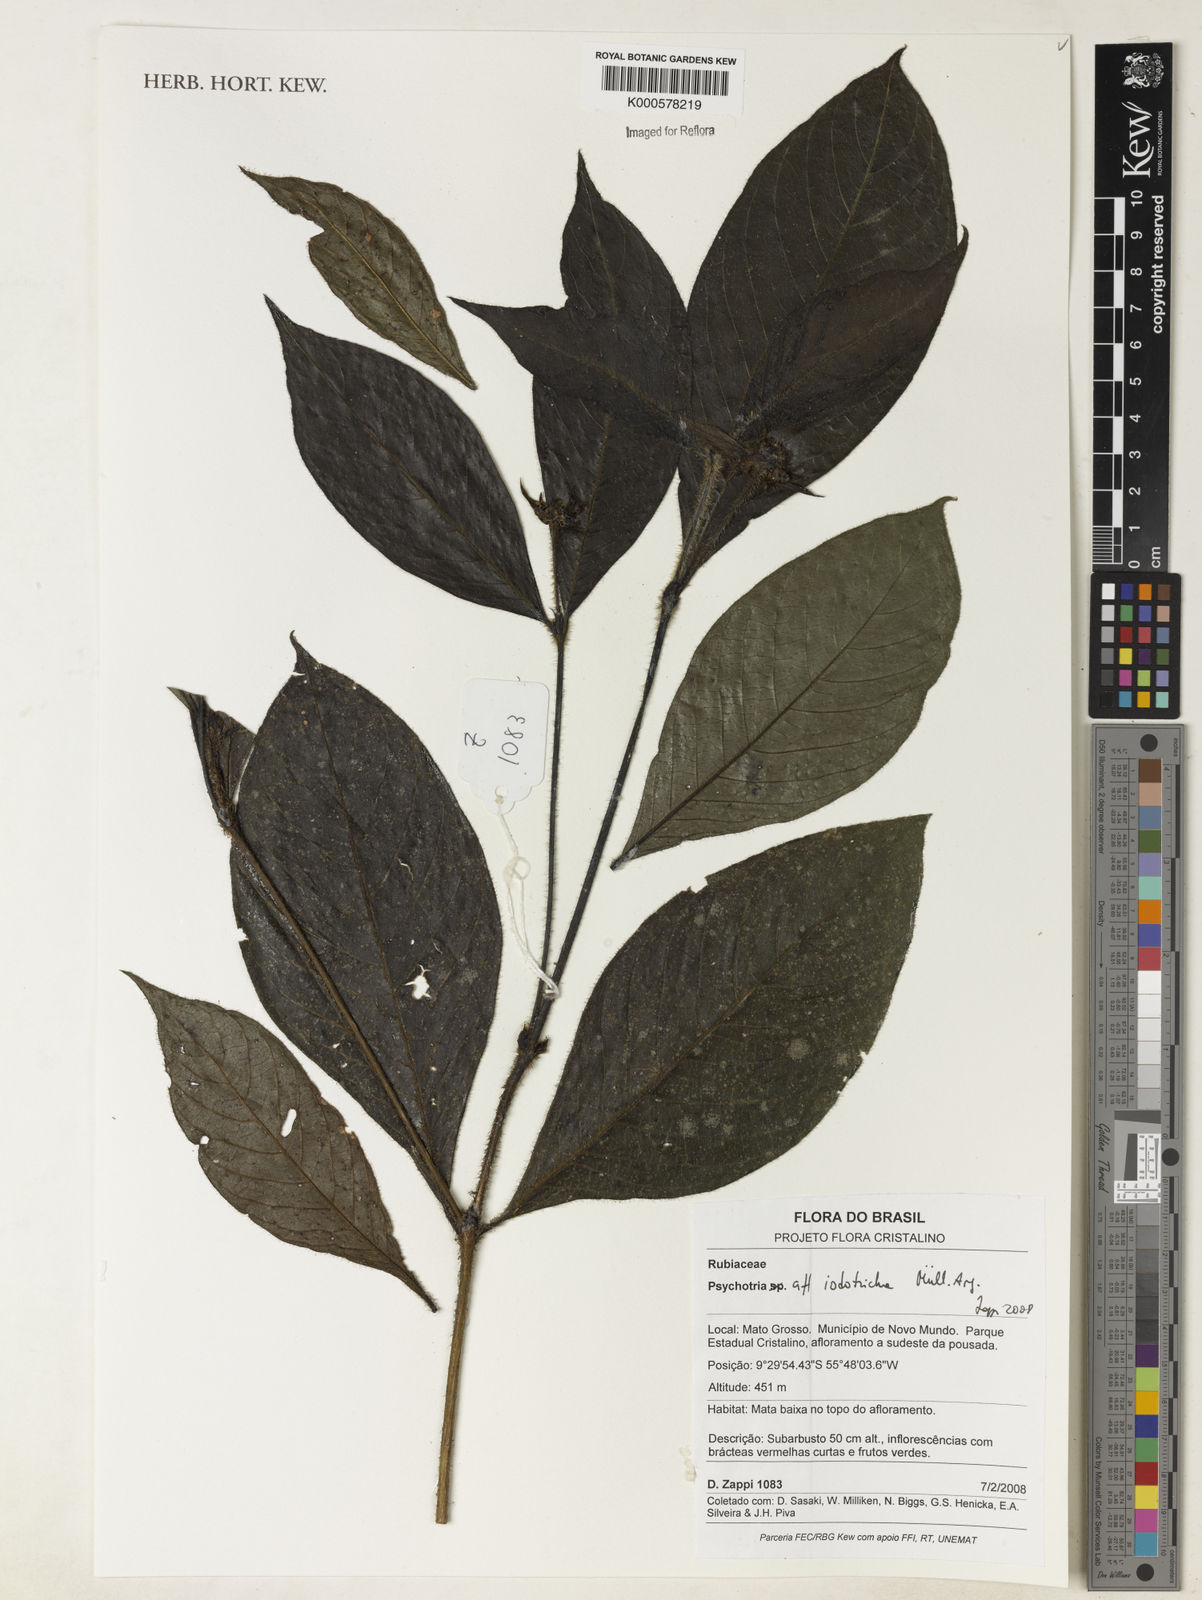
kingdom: Plantae
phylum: Tracheophyta
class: Magnoliopsida
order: Gentianales
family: Rubiaceae
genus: Psychotria
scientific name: Psychotria
